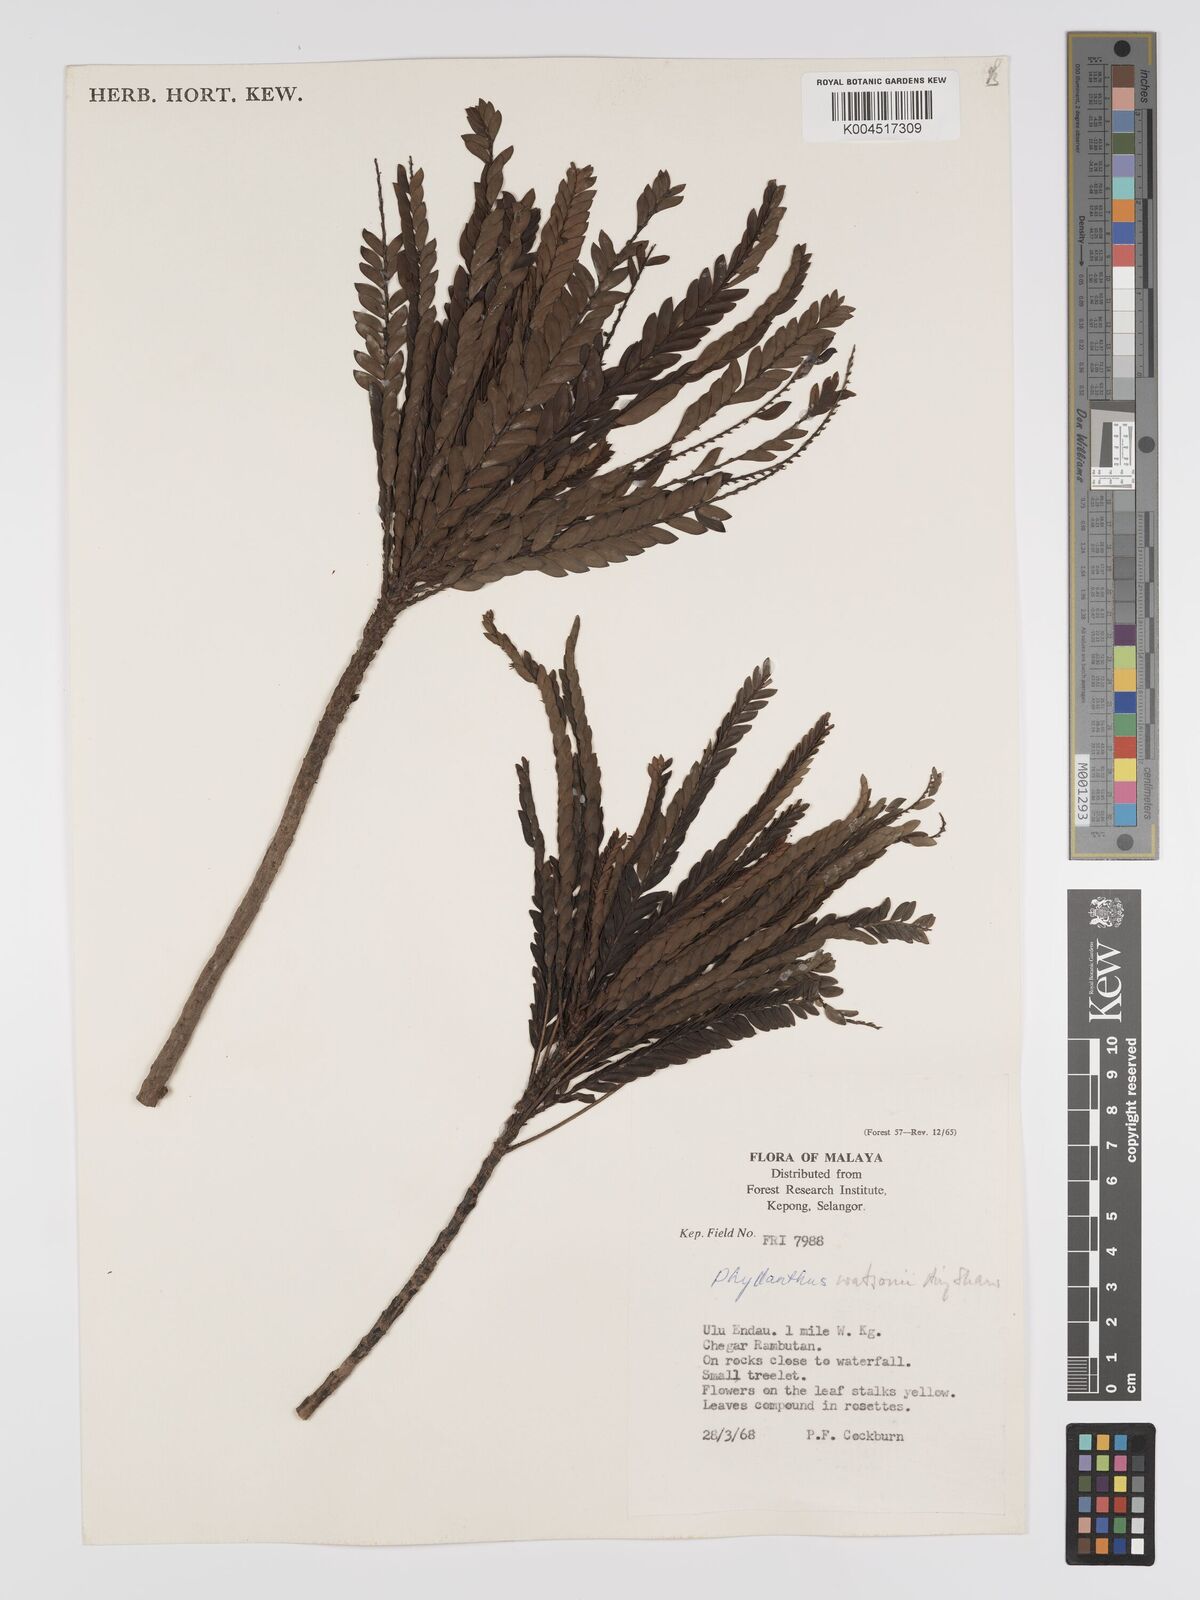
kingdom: Plantae
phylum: Tracheophyta
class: Magnoliopsida
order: Malpighiales
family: Phyllanthaceae
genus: Phyllanthus
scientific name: Phyllanthus watsonii
